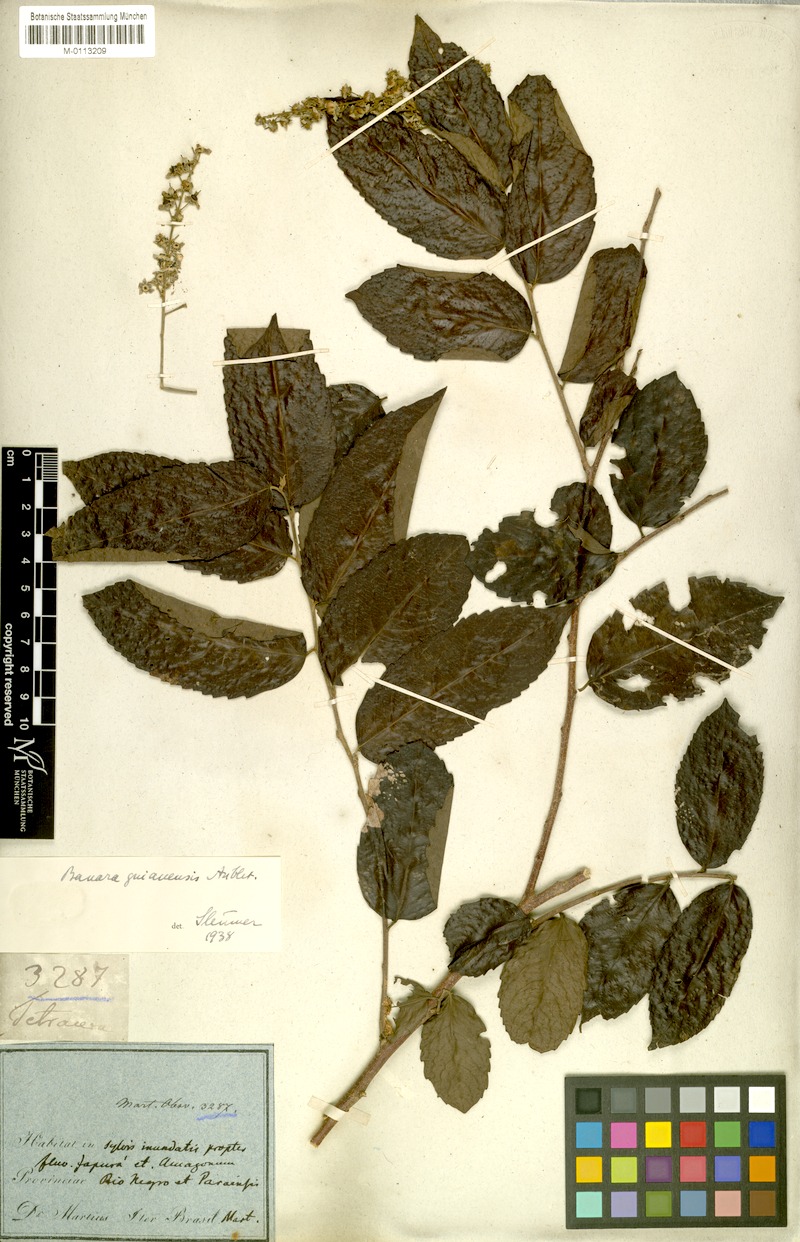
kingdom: Plantae
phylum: Tracheophyta
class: Magnoliopsida
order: Malpighiales
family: Salicaceae
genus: Banara
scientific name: Banara guianensis
